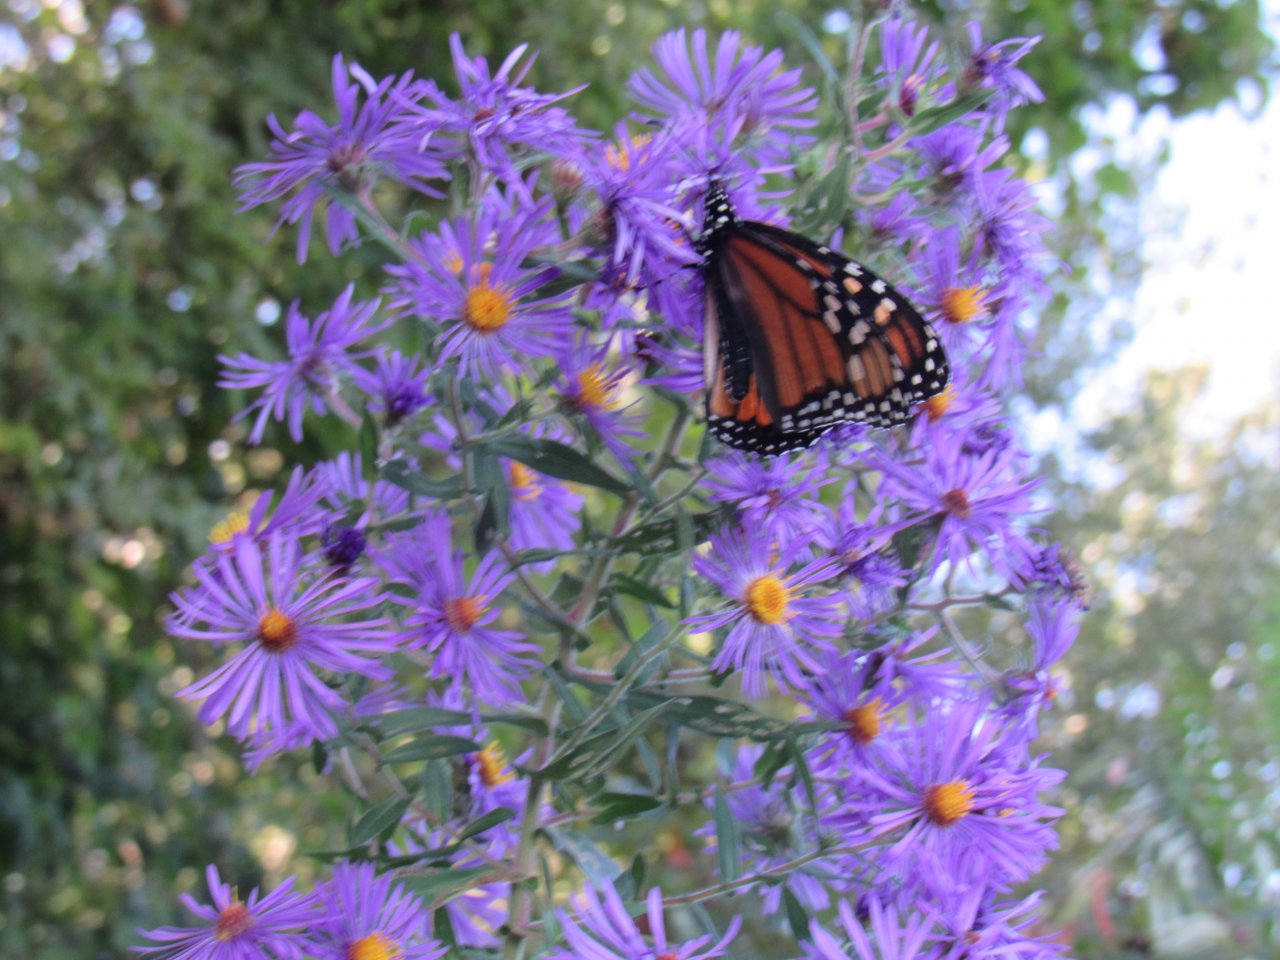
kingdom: Animalia
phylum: Arthropoda
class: Insecta
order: Lepidoptera
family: Nymphalidae
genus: Danaus
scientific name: Danaus plexippus
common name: Monarch
